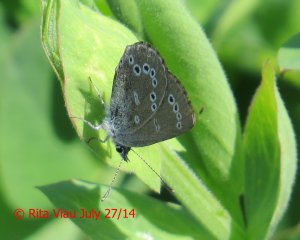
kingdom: Animalia
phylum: Arthropoda
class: Insecta
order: Lepidoptera
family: Lycaenidae
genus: Glaucopsyche
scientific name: Glaucopsyche lygdamus
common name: Silvery Blue
